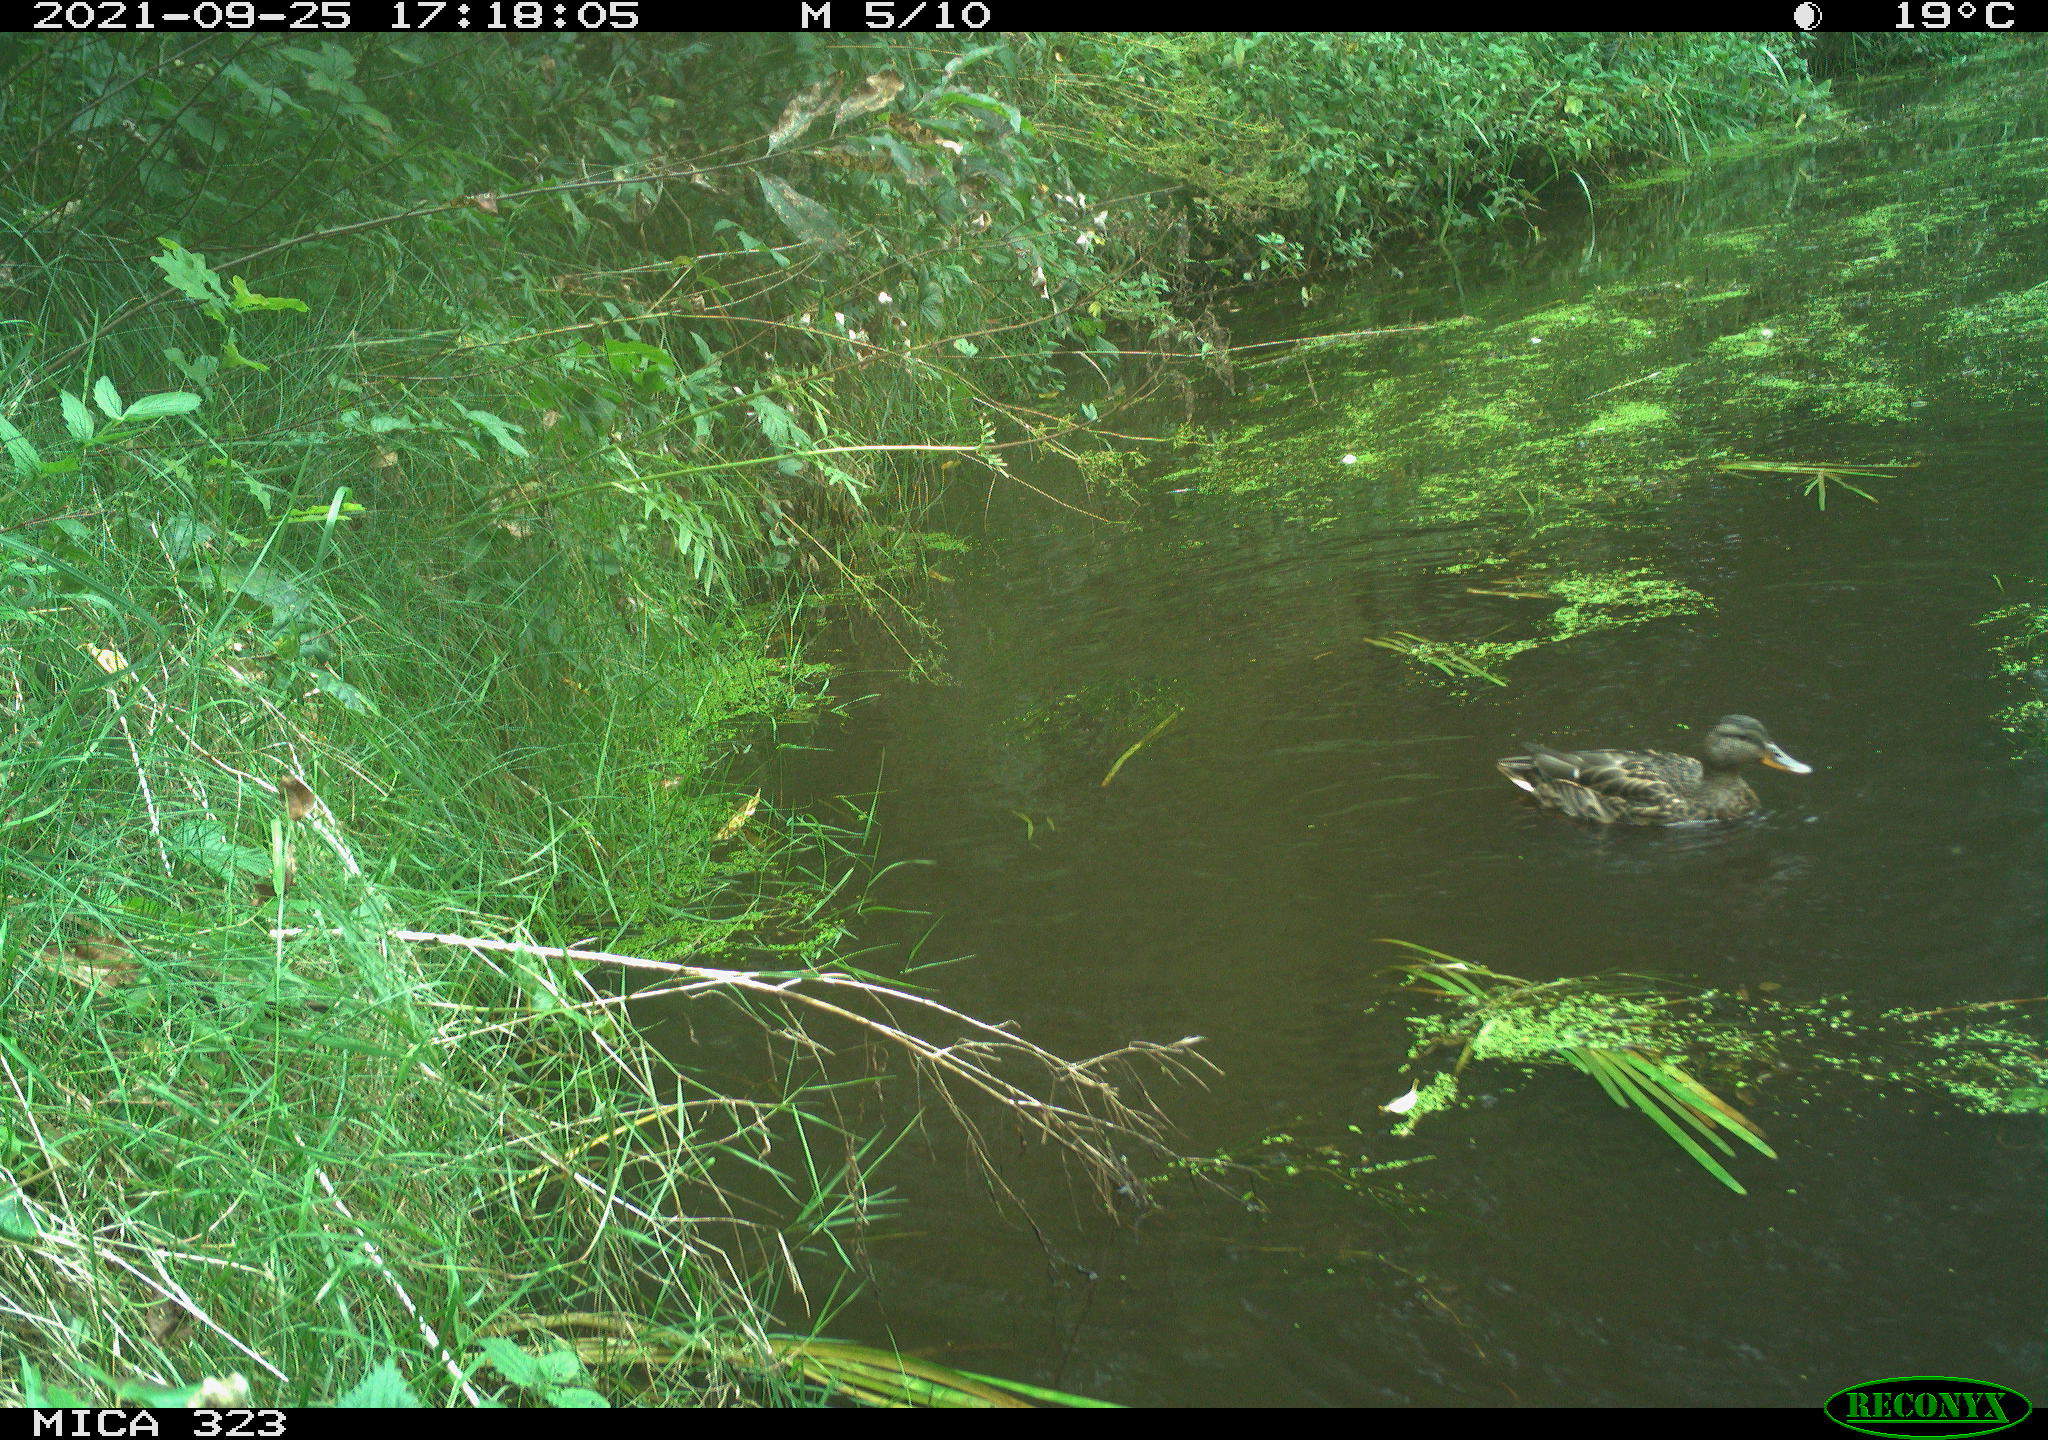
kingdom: Animalia
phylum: Chordata
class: Aves
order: Anseriformes
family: Anatidae
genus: Anas
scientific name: Anas platyrhynchos
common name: Mallard
